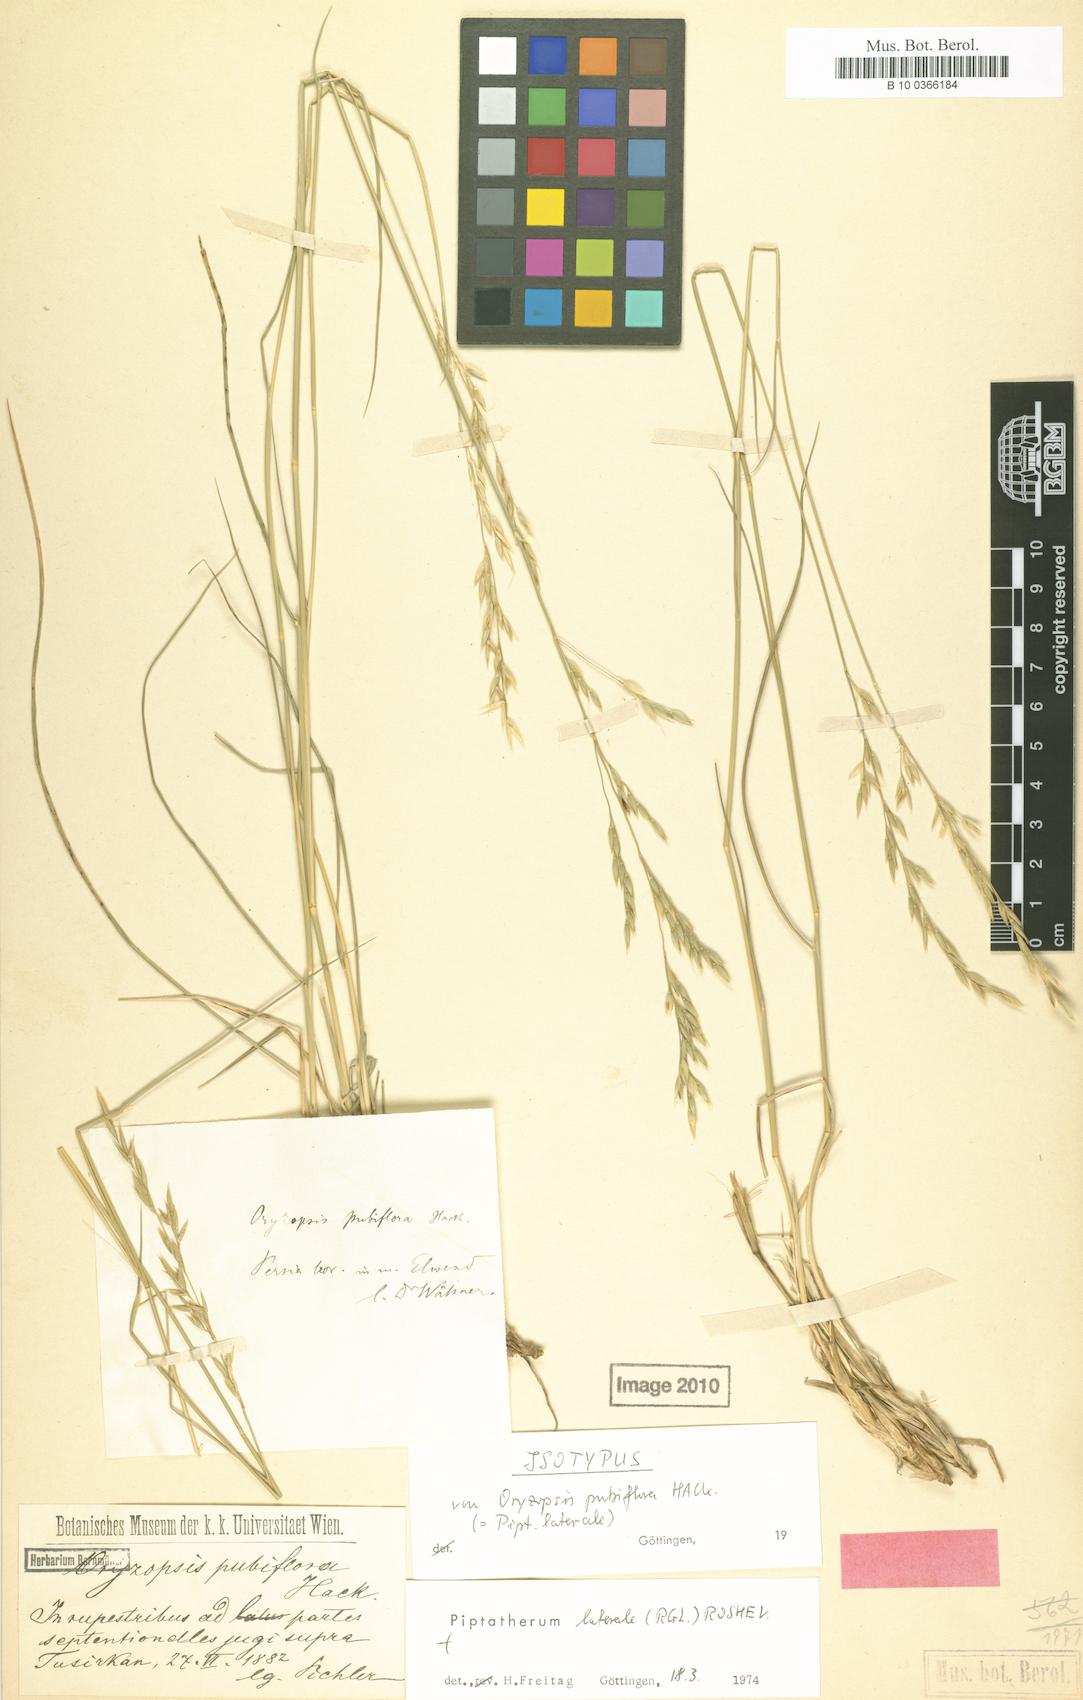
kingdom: Plantae
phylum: Tracheophyta
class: Liliopsida
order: Poales
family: Poaceae
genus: Piptatherum
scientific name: Piptatherum laterale
